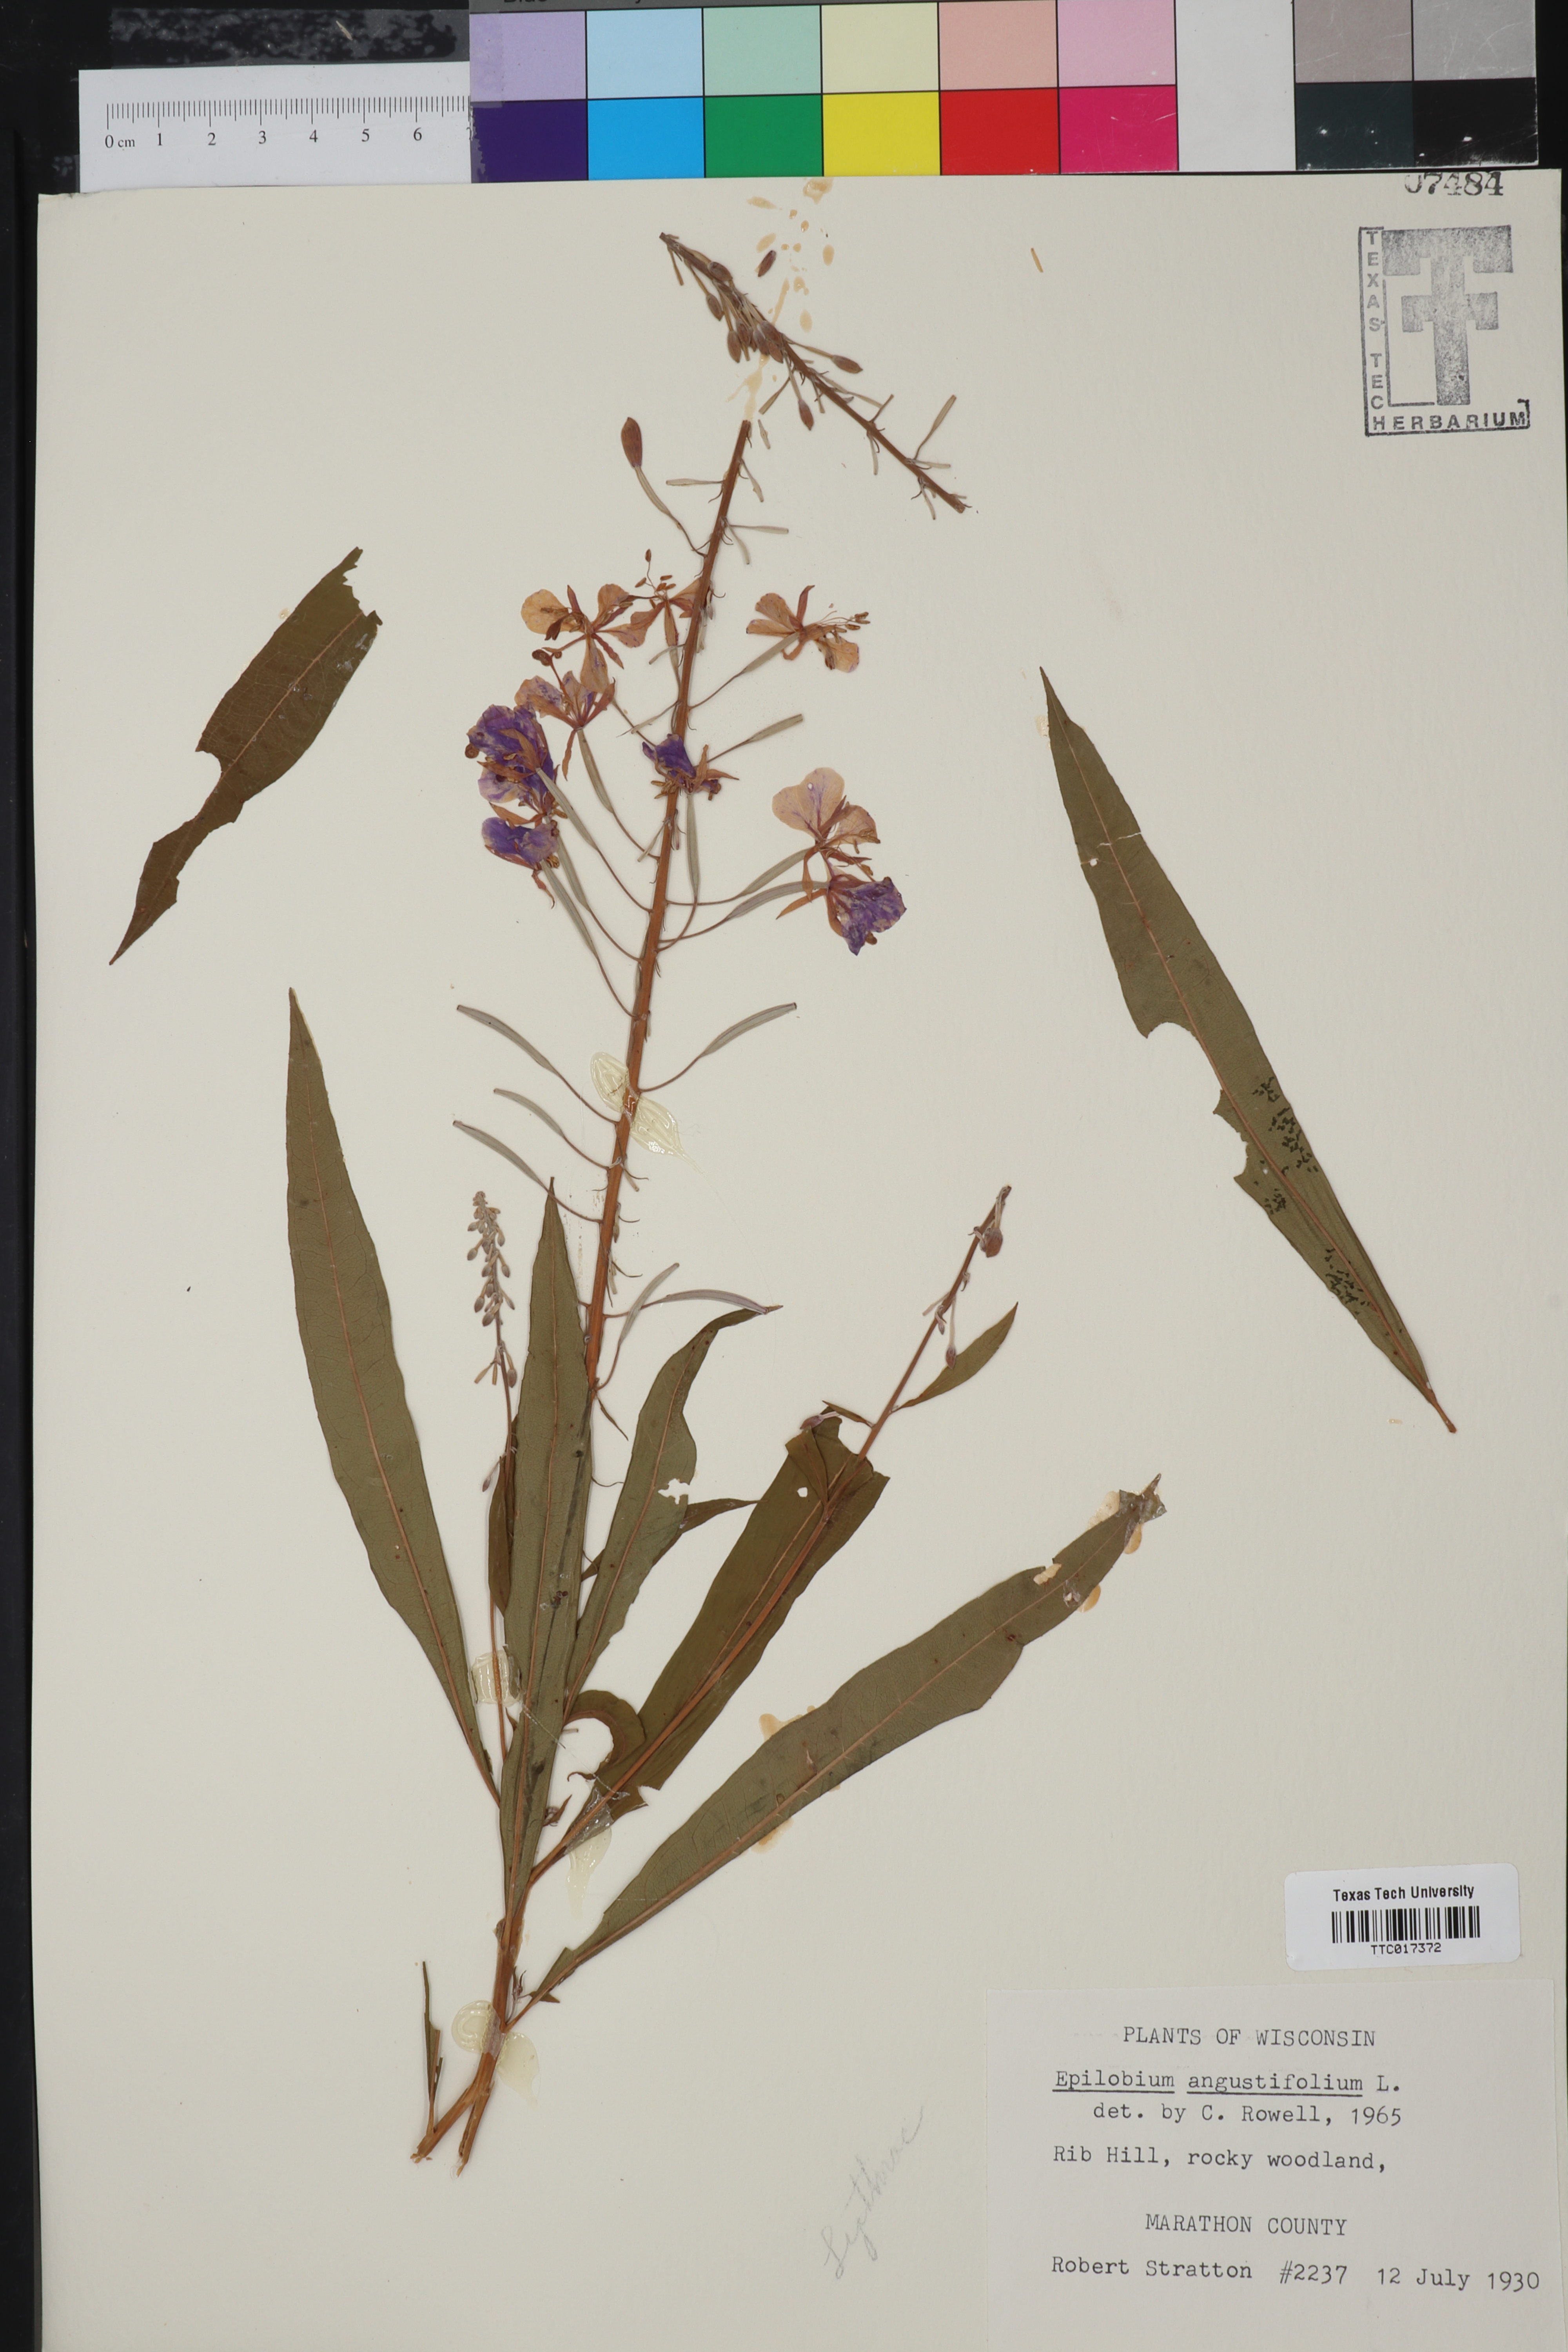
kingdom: Plantae
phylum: Tracheophyta
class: Magnoliopsida
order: Myrtales
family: Onagraceae
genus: Chamaenerion
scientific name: Chamaenerion dodonaei
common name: Rosemary-leaved willowherb
